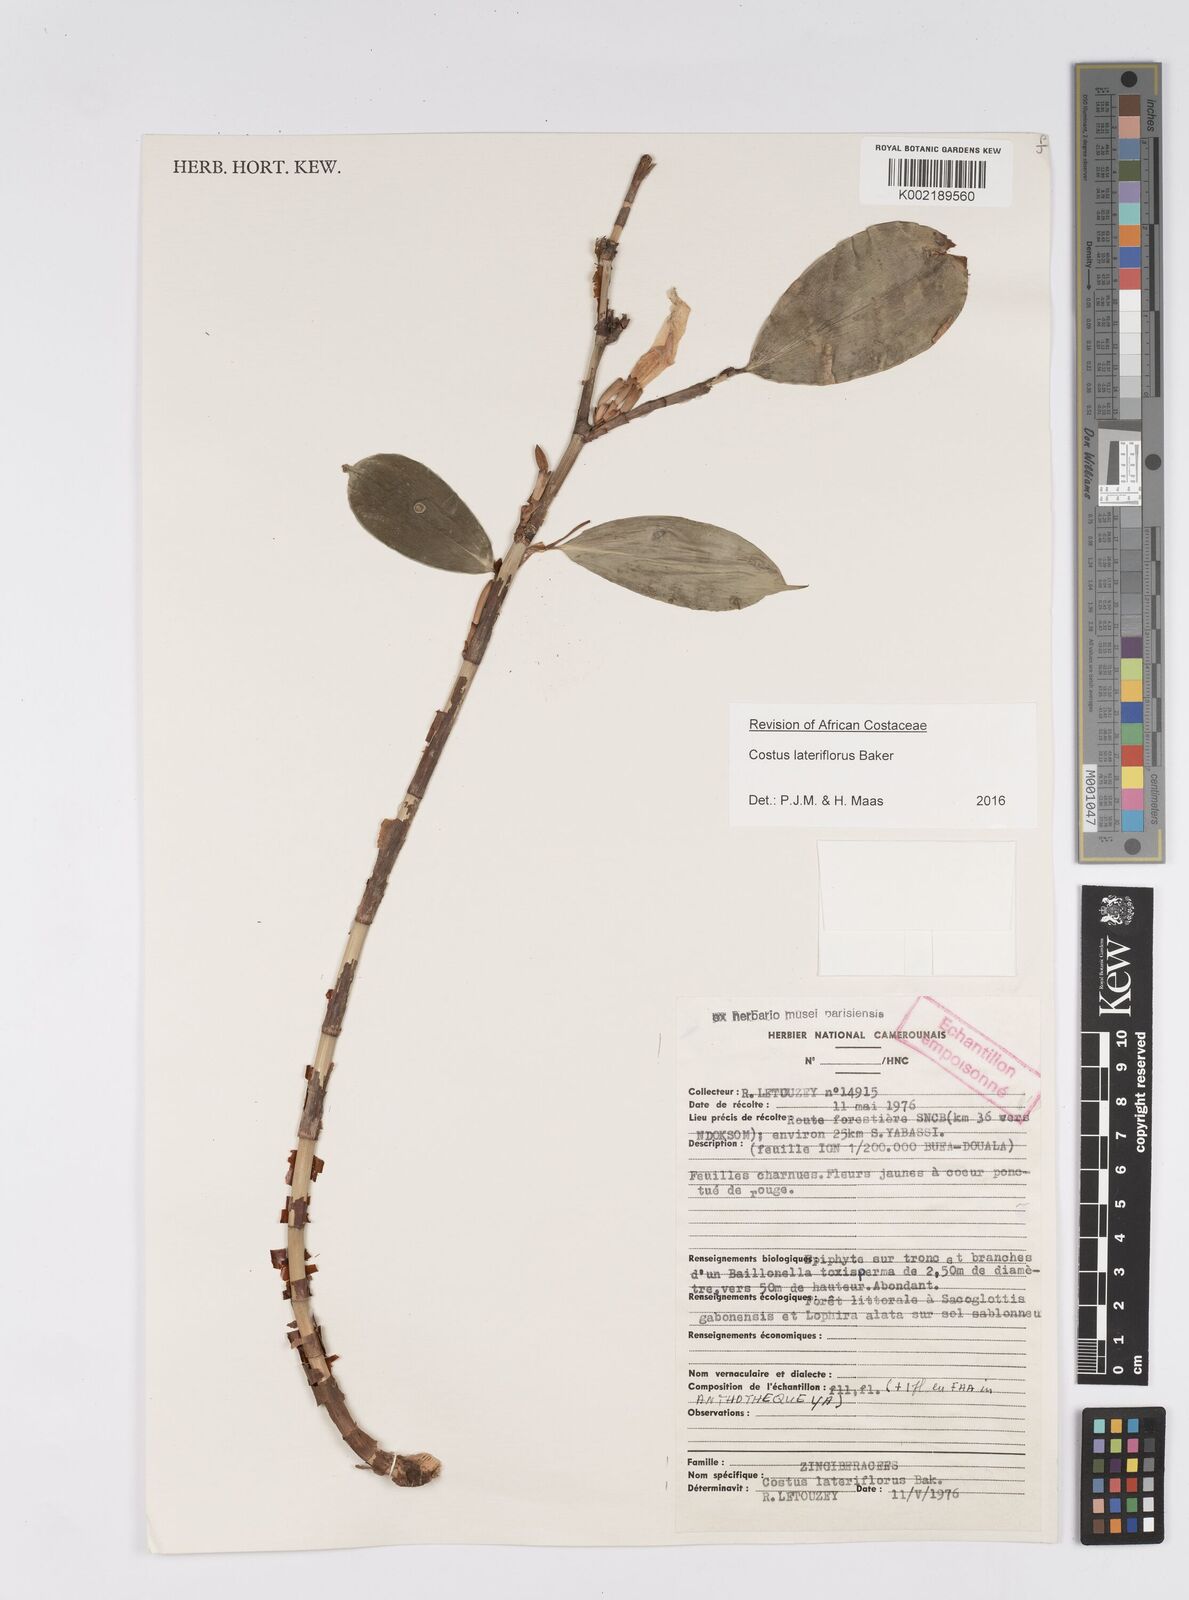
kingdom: Plantae
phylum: Tracheophyta
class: Liliopsida
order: Zingiberales
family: Costaceae
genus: Costus
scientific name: Costus lateriflorus
